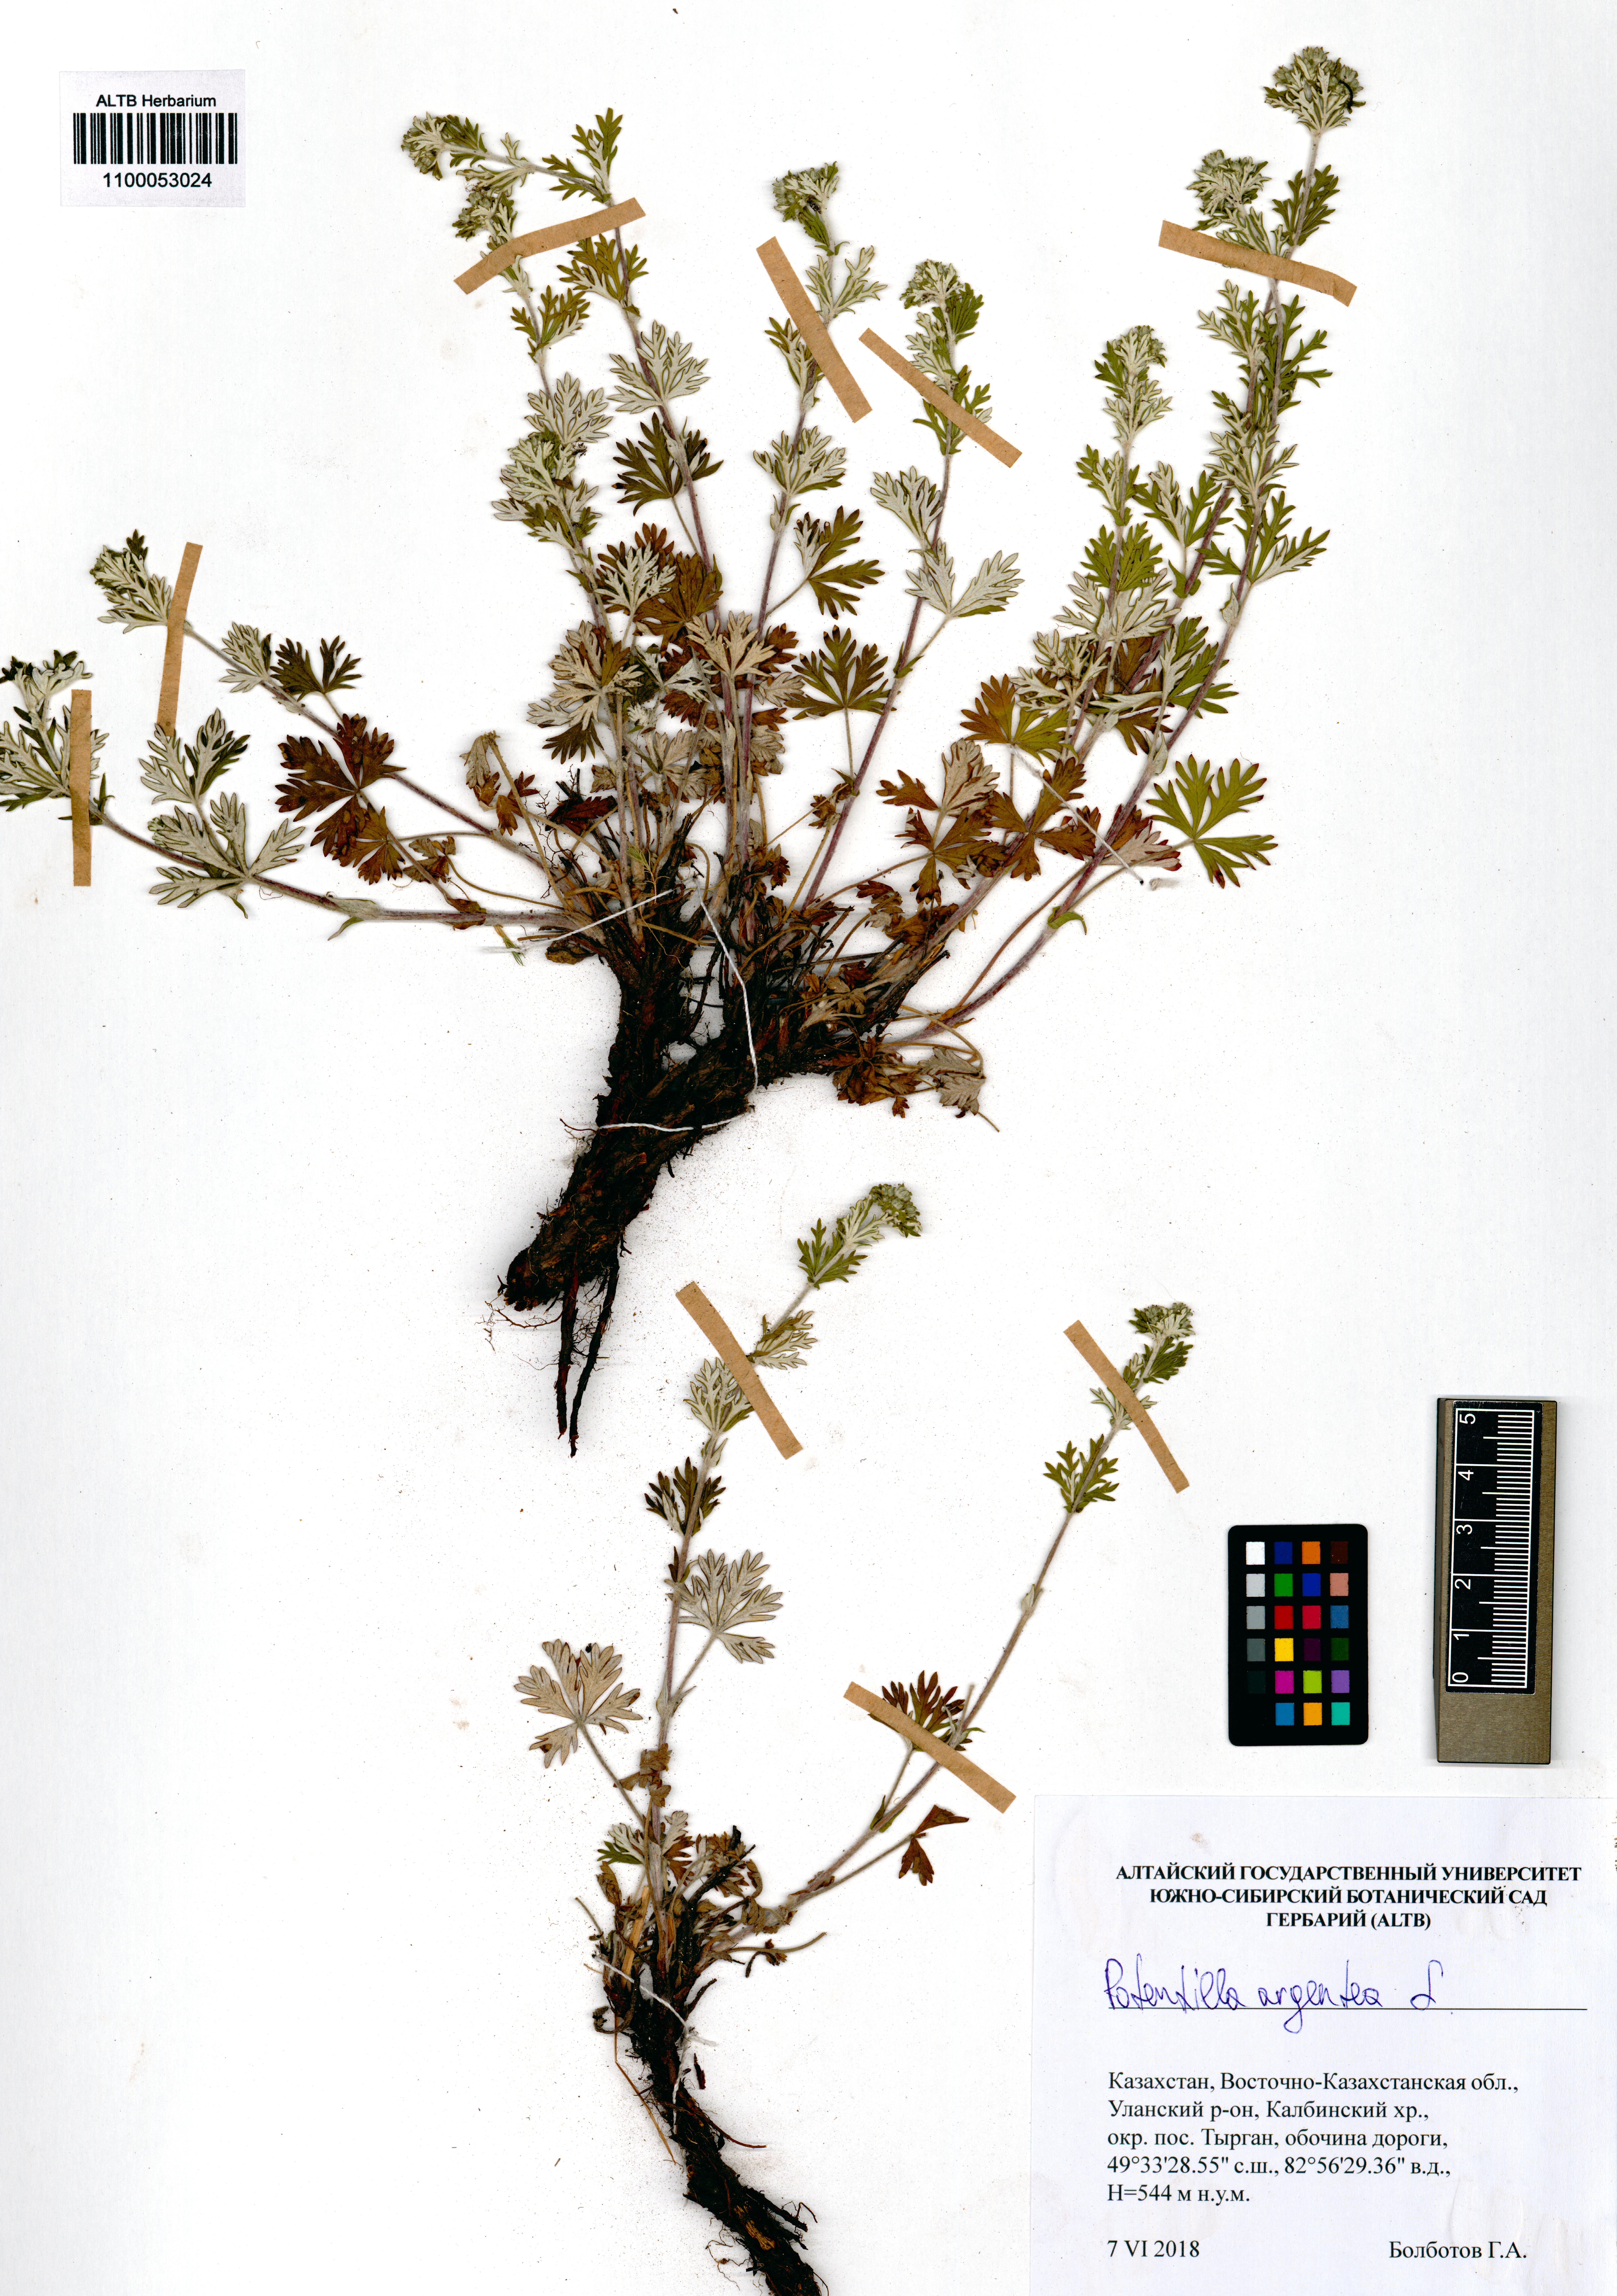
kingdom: Plantae
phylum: Tracheophyta
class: Magnoliopsida
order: Rosales
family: Rosaceae
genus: Potentilla
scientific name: Potentilla argentea
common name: Hoary cinquefoil
